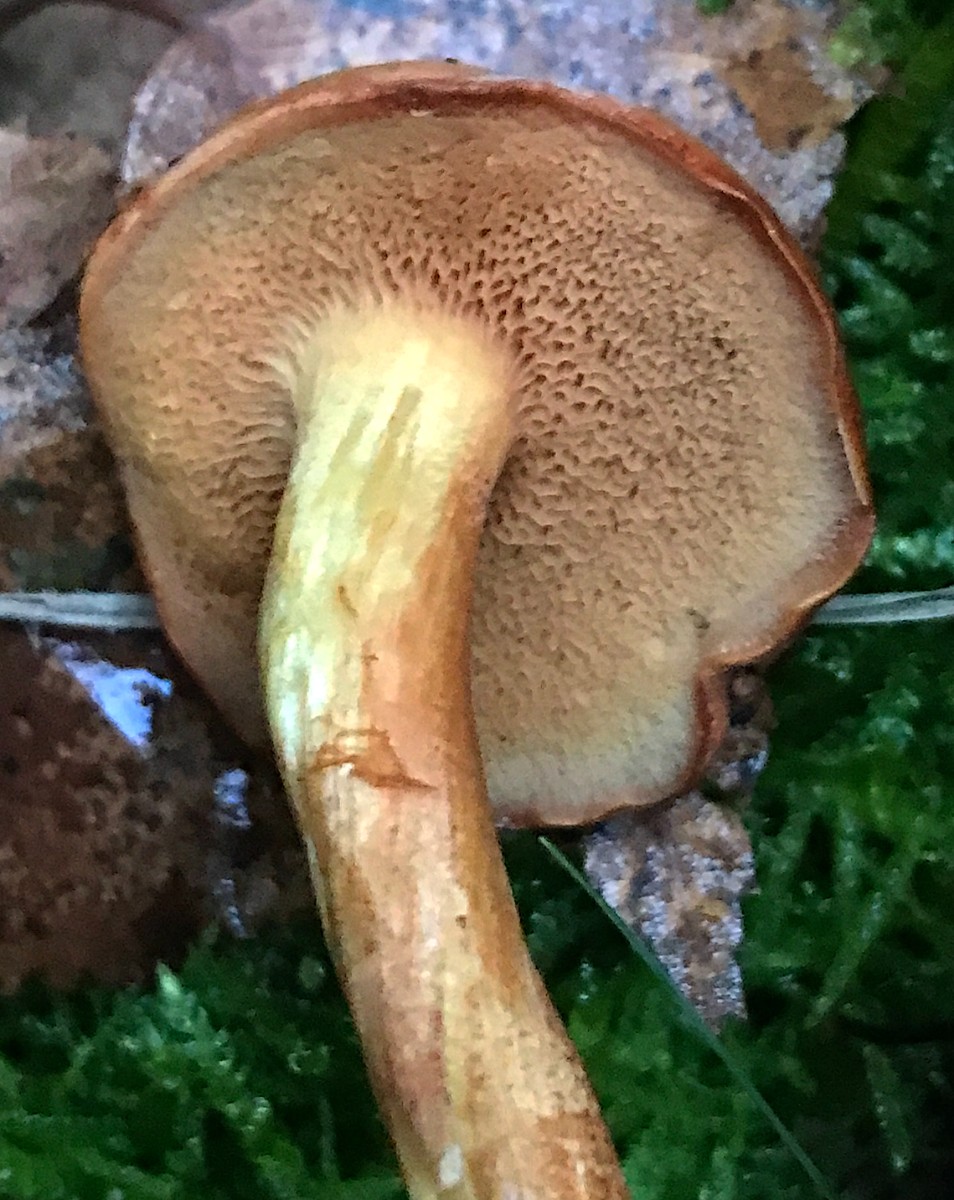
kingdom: Fungi
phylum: Basidiomycota
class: Agaricomycetes
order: Boletales
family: Boletaceae
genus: Chalciporus
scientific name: Chalciporus piperatus
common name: peberrørhat
